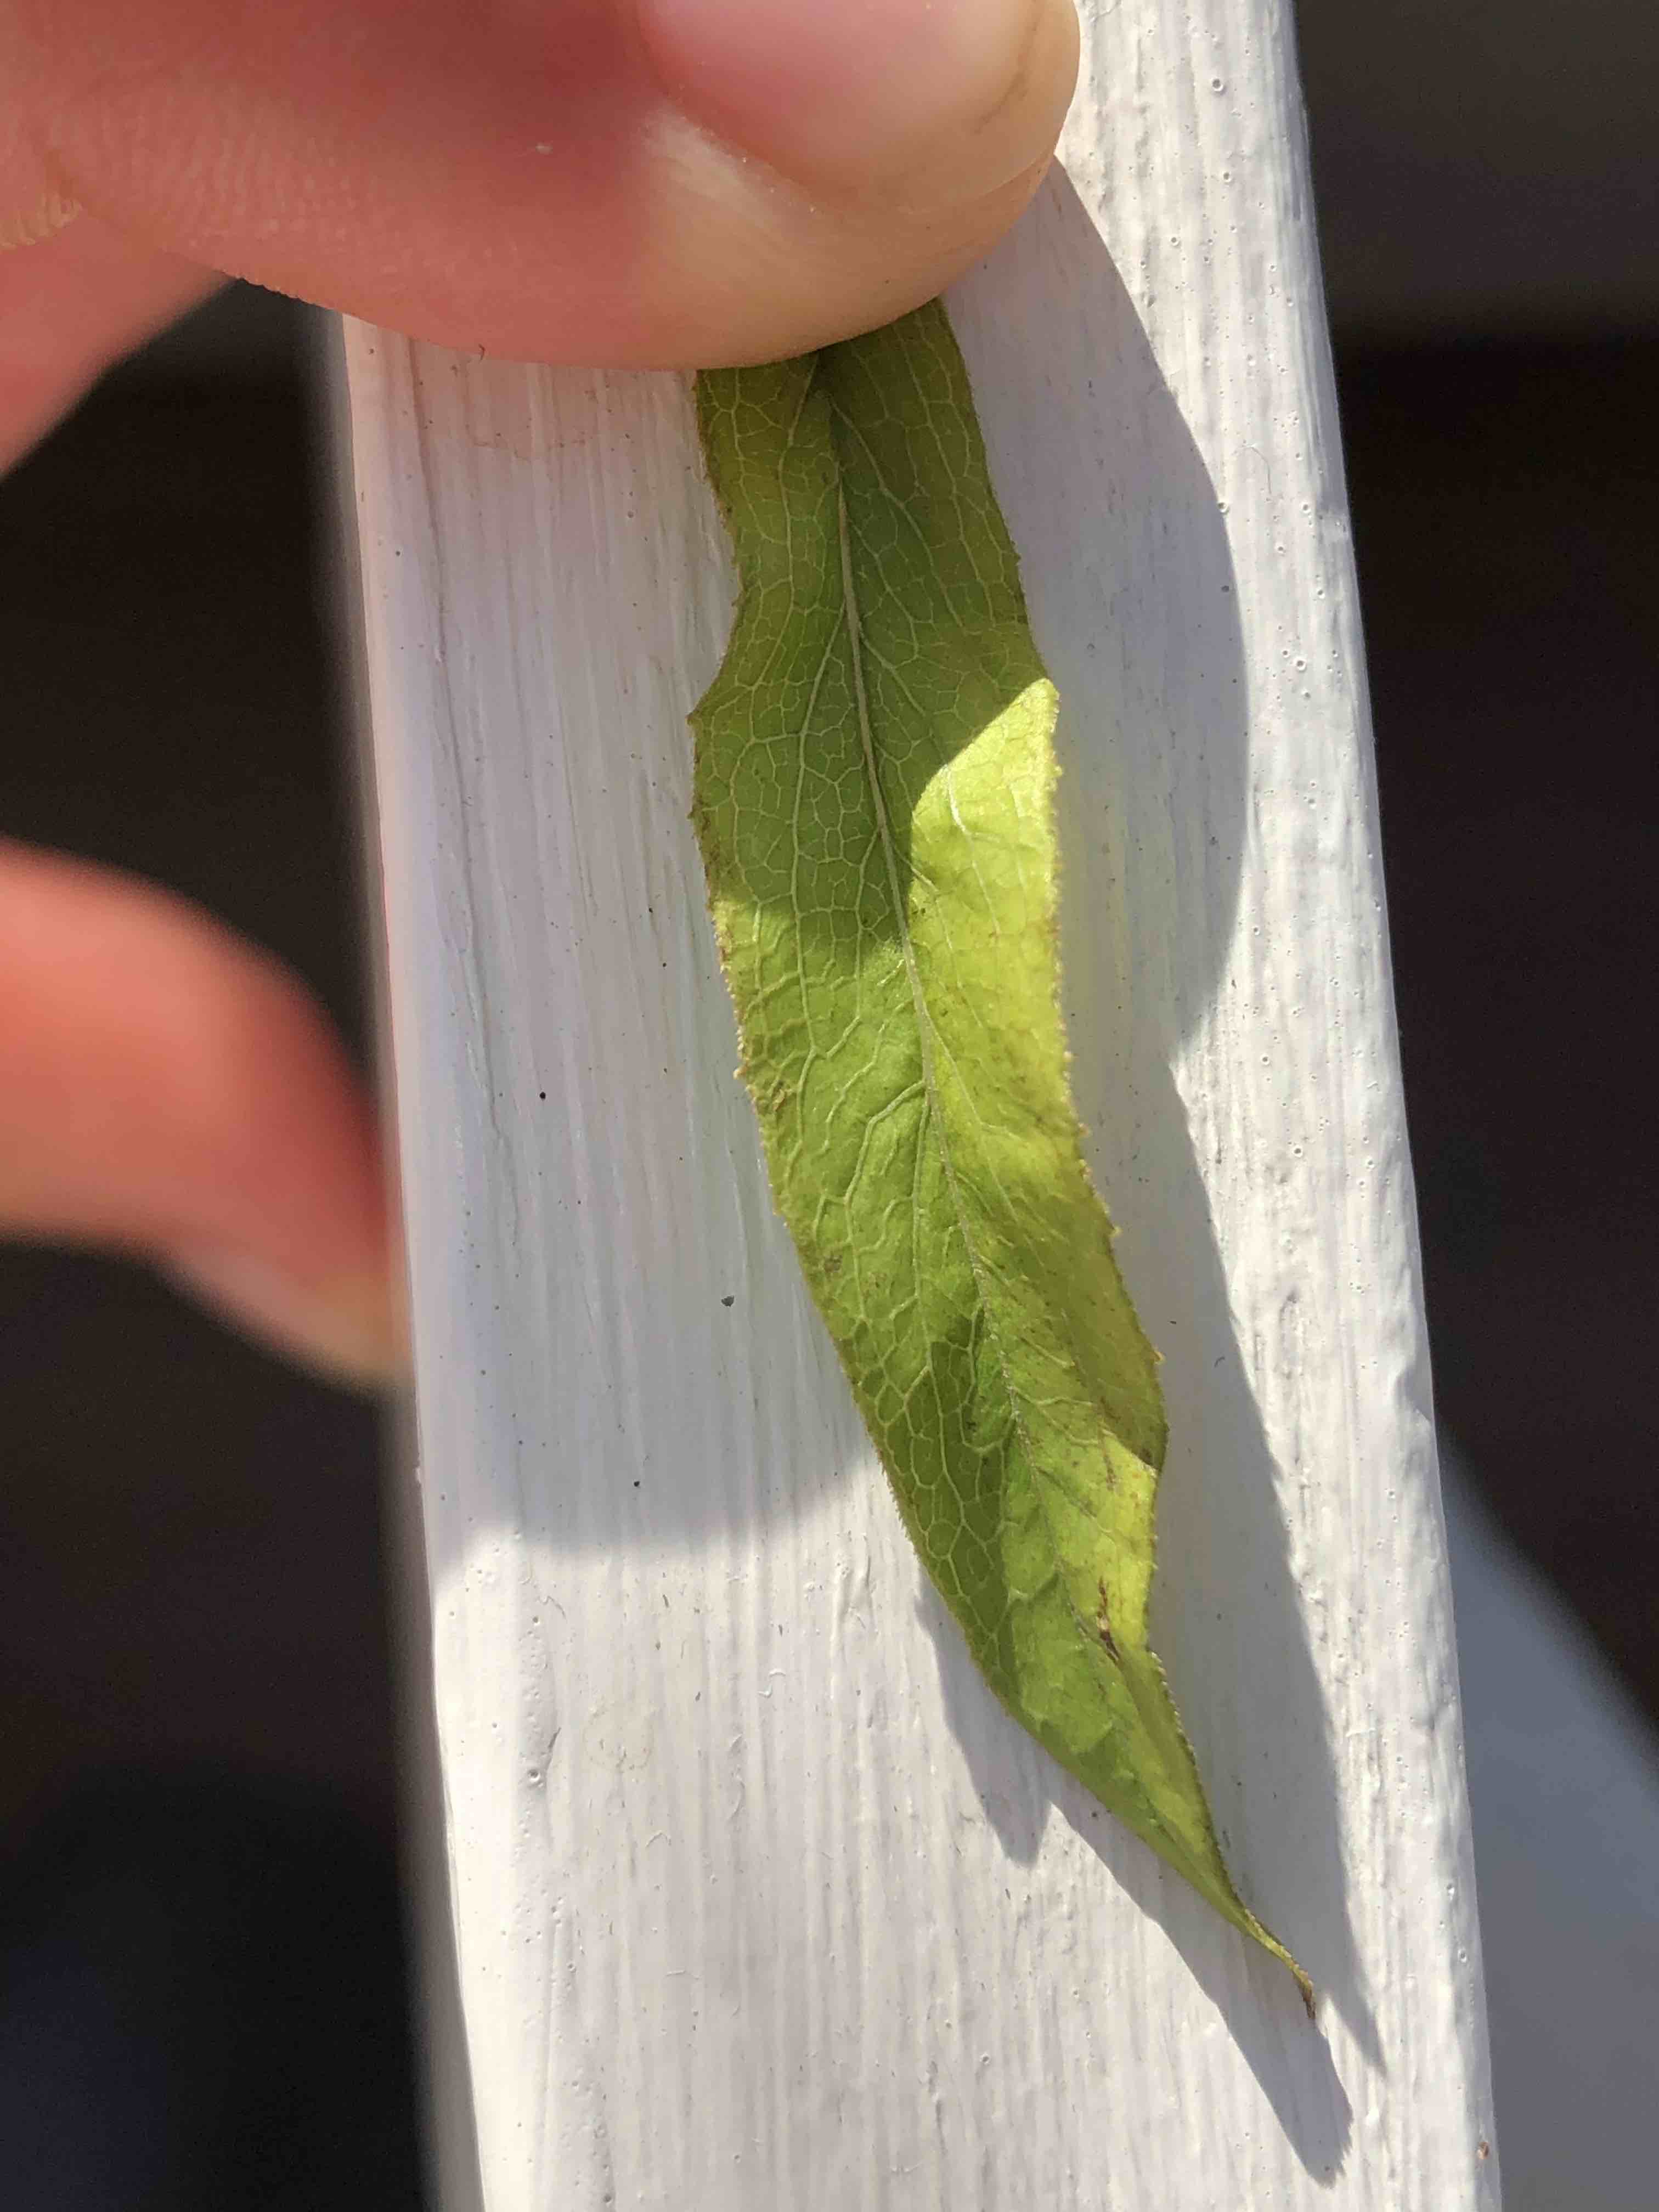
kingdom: Plantae
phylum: Tracheophyta
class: Magnoliopsida
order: Asterales
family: Asteraceae
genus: Pentanema
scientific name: Pentanema salicinum
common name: Pile-alant
